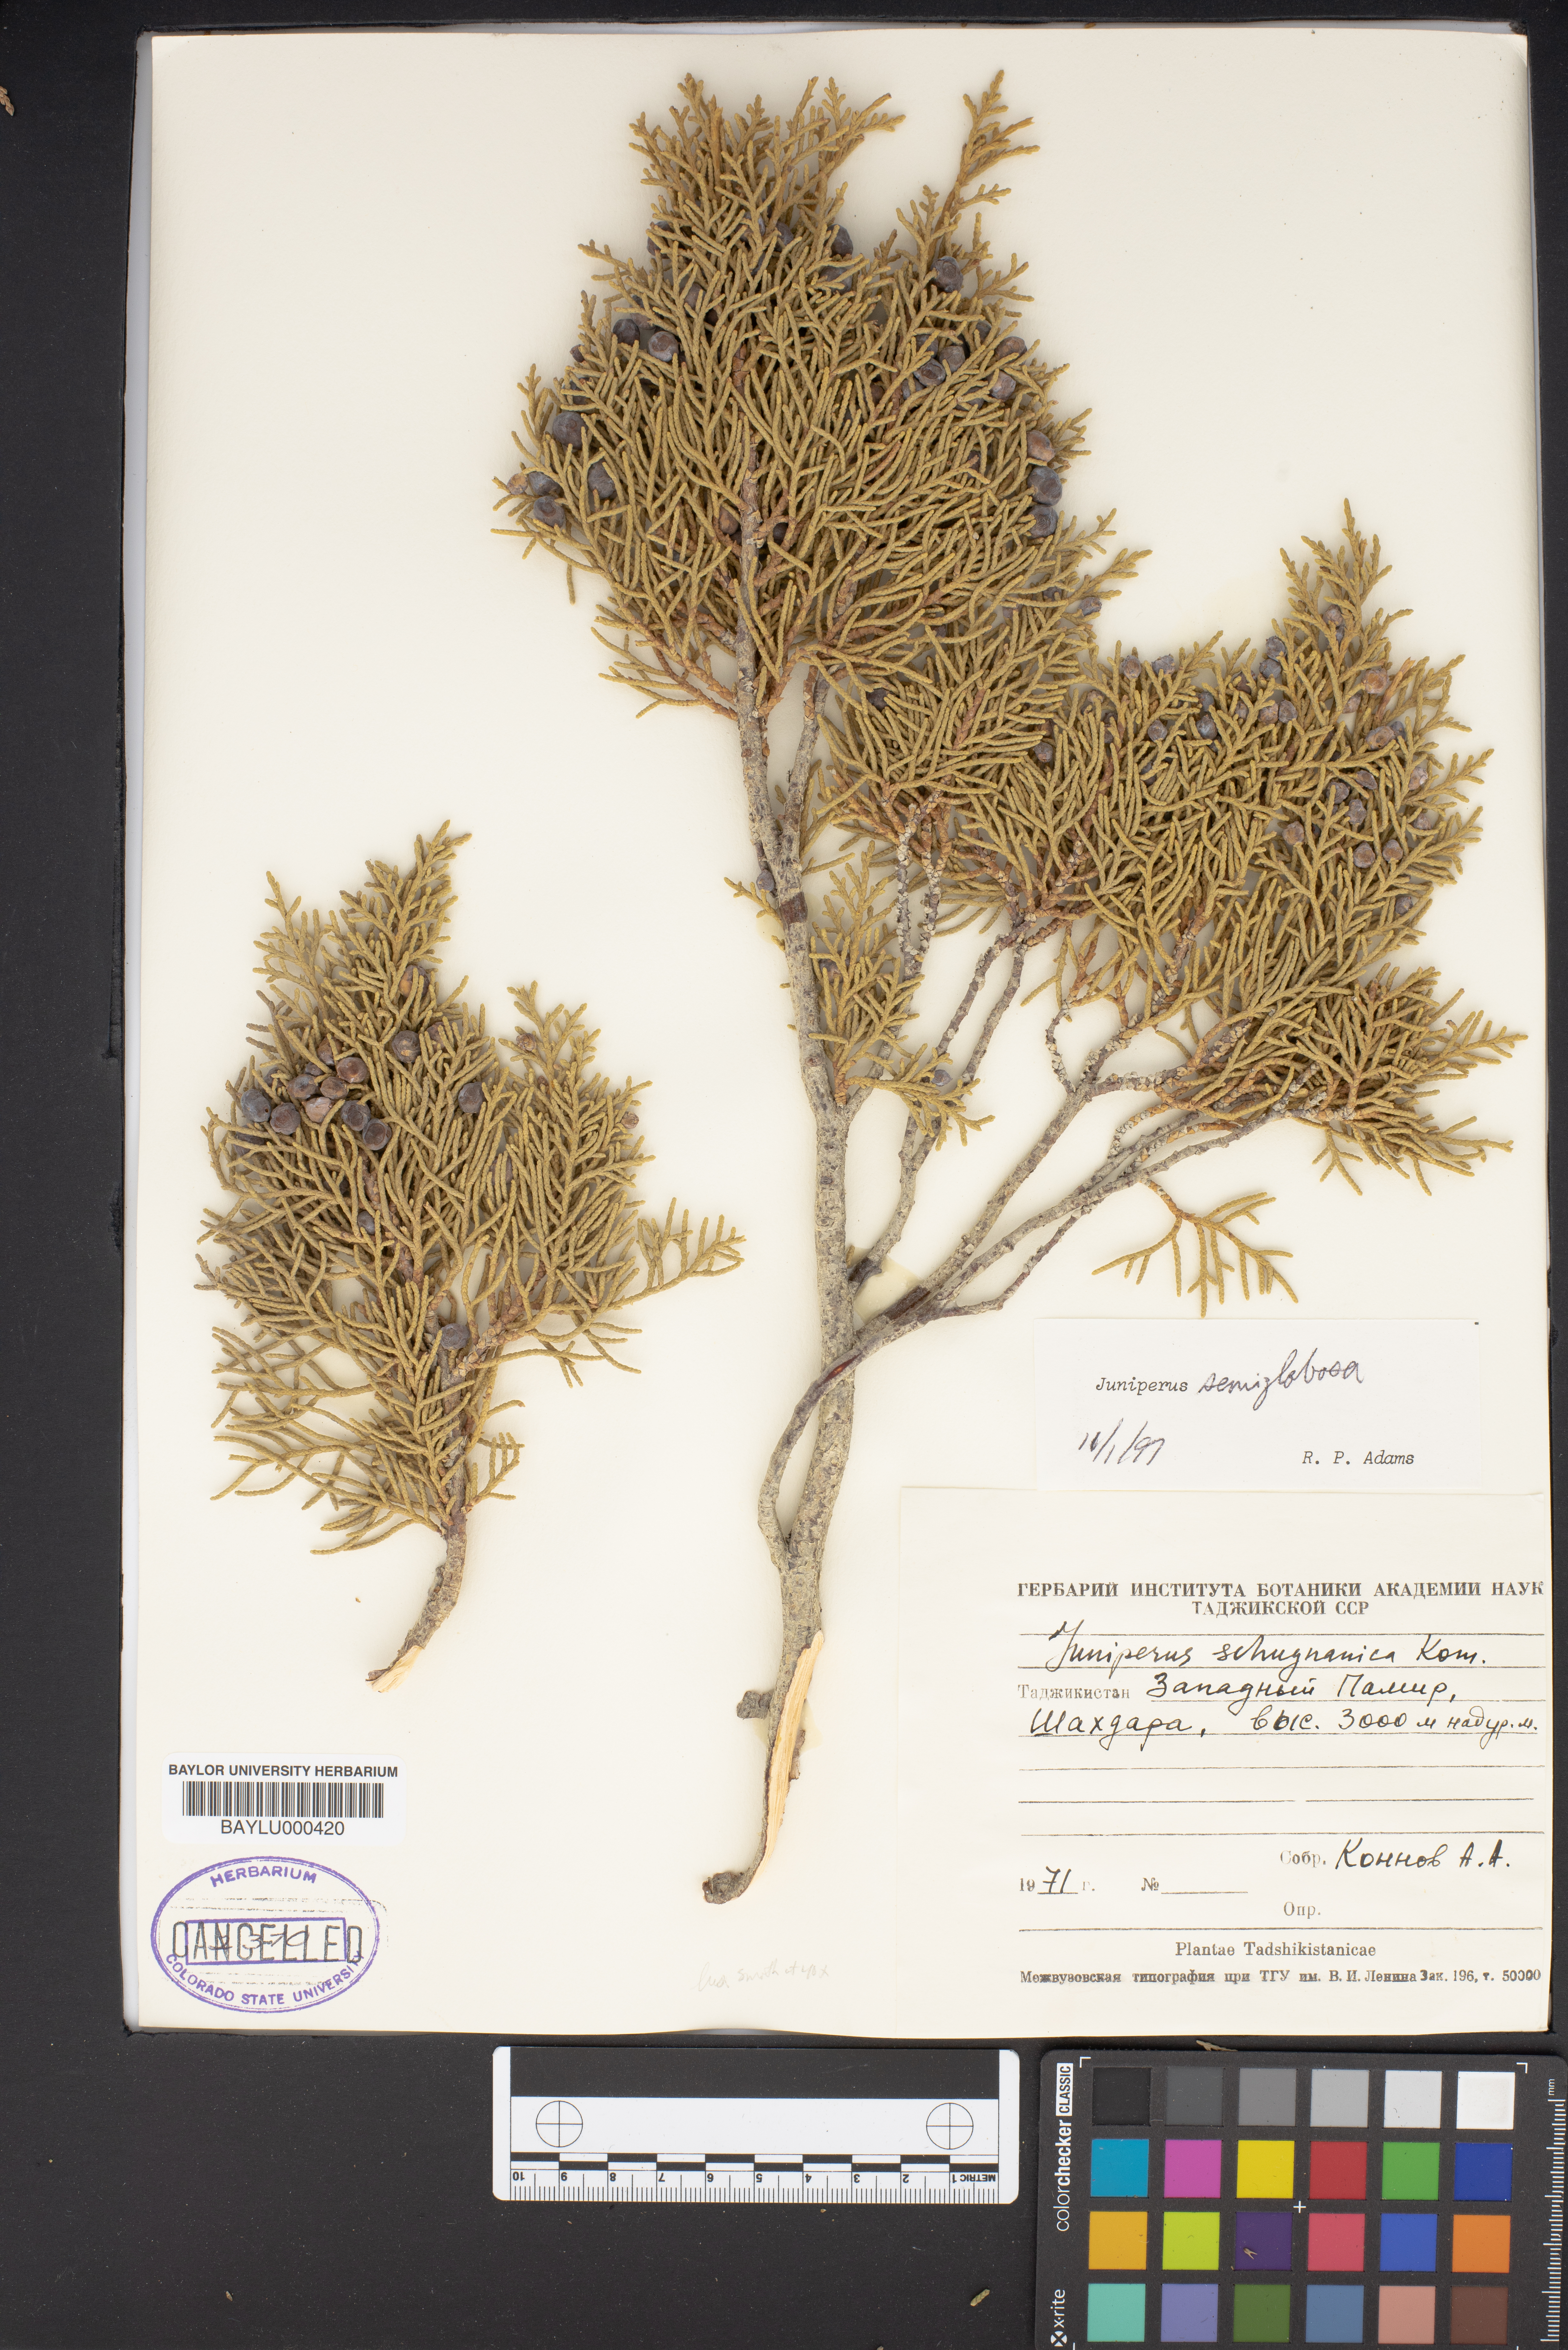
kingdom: Plantae
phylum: Tracheophyta
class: Pinopsida
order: Pinales
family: Cupressaceae
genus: Juniperus
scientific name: Juniperus semiglobosa
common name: Pencil cedar
